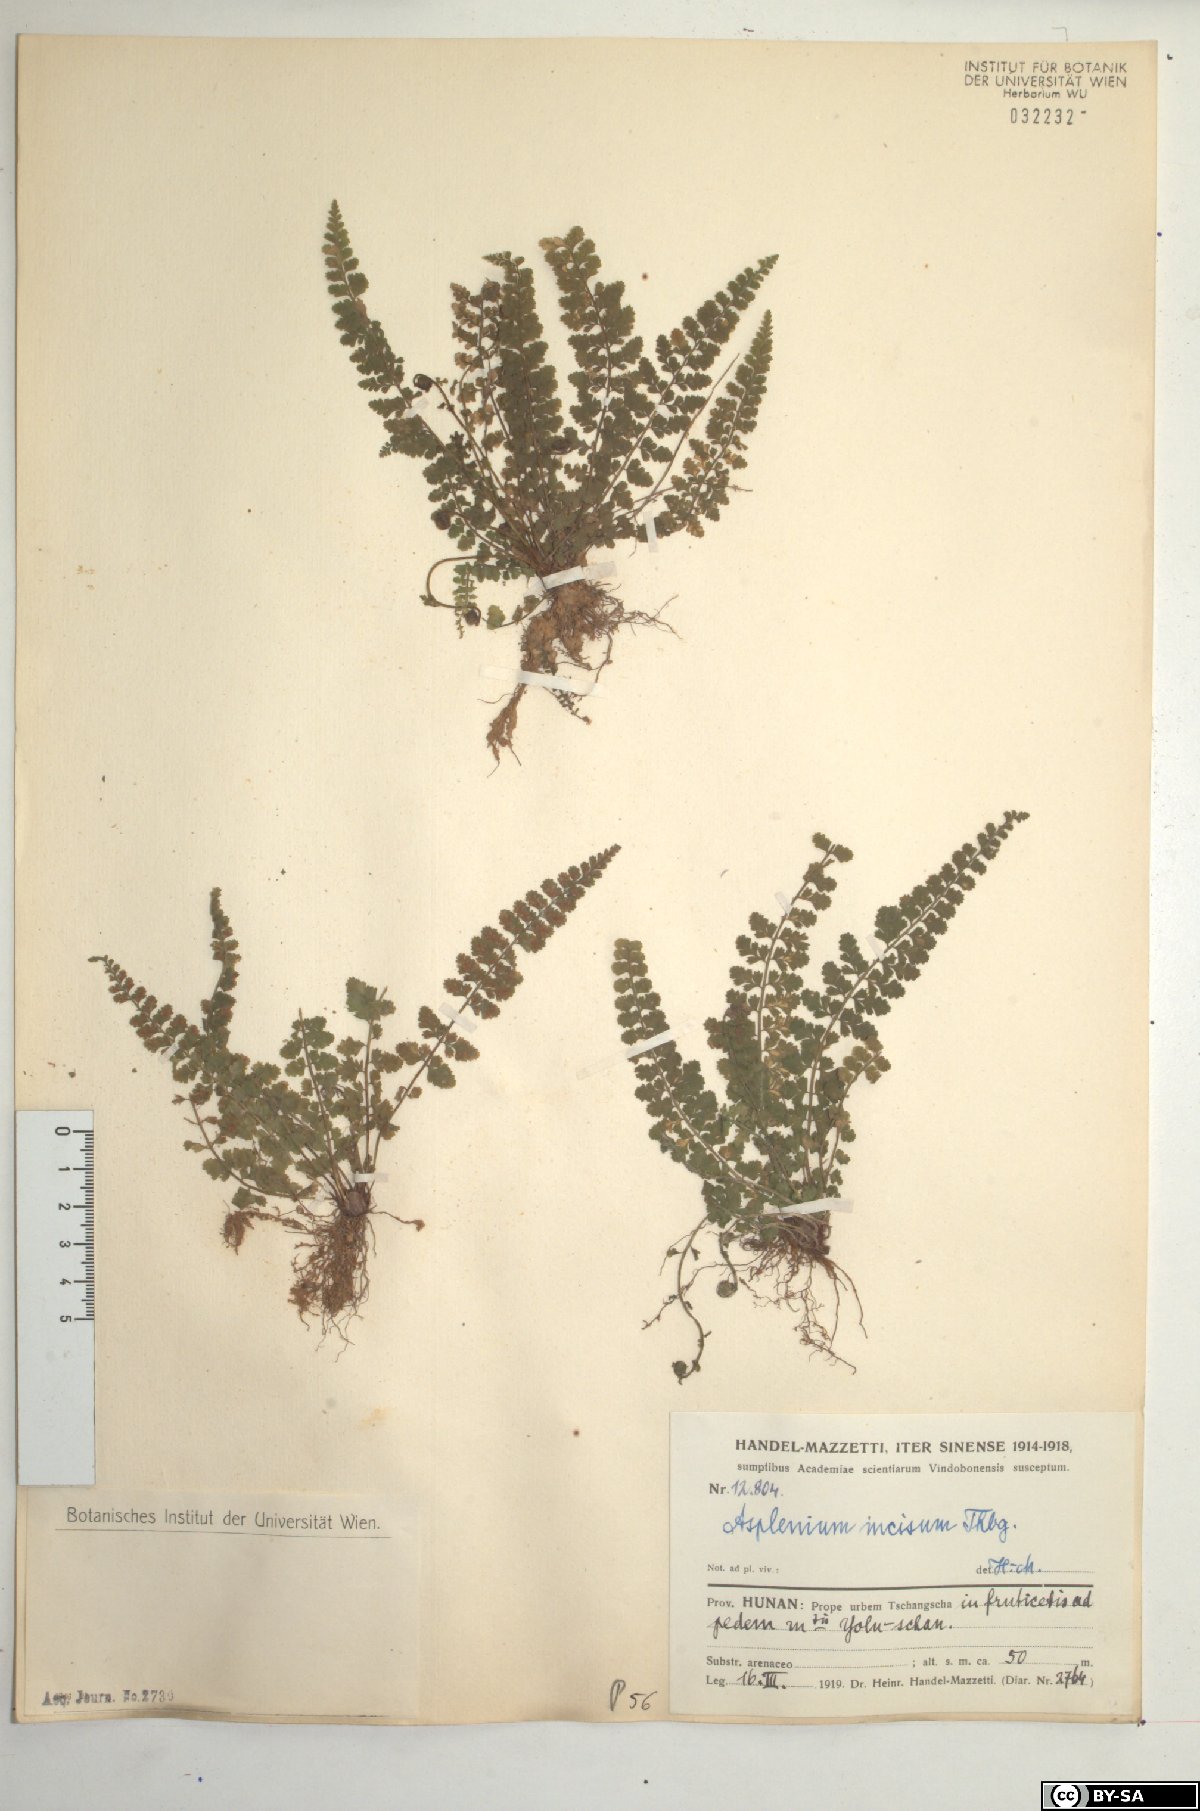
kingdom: Plantae
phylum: Tracheophyta
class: Polypodiopsida
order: Polypodiales
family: Aspleniaceae
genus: Asplenium
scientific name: Asplenium incisum
